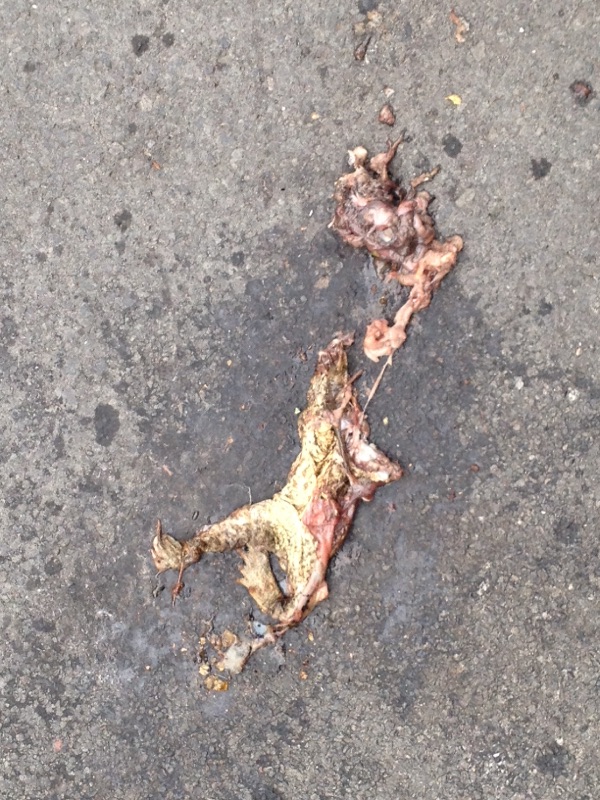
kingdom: Animalia
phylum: Chordata
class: Amphibia
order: Anura
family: Bufonidae
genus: Bufo
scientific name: Bufo bufo
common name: Common toad
